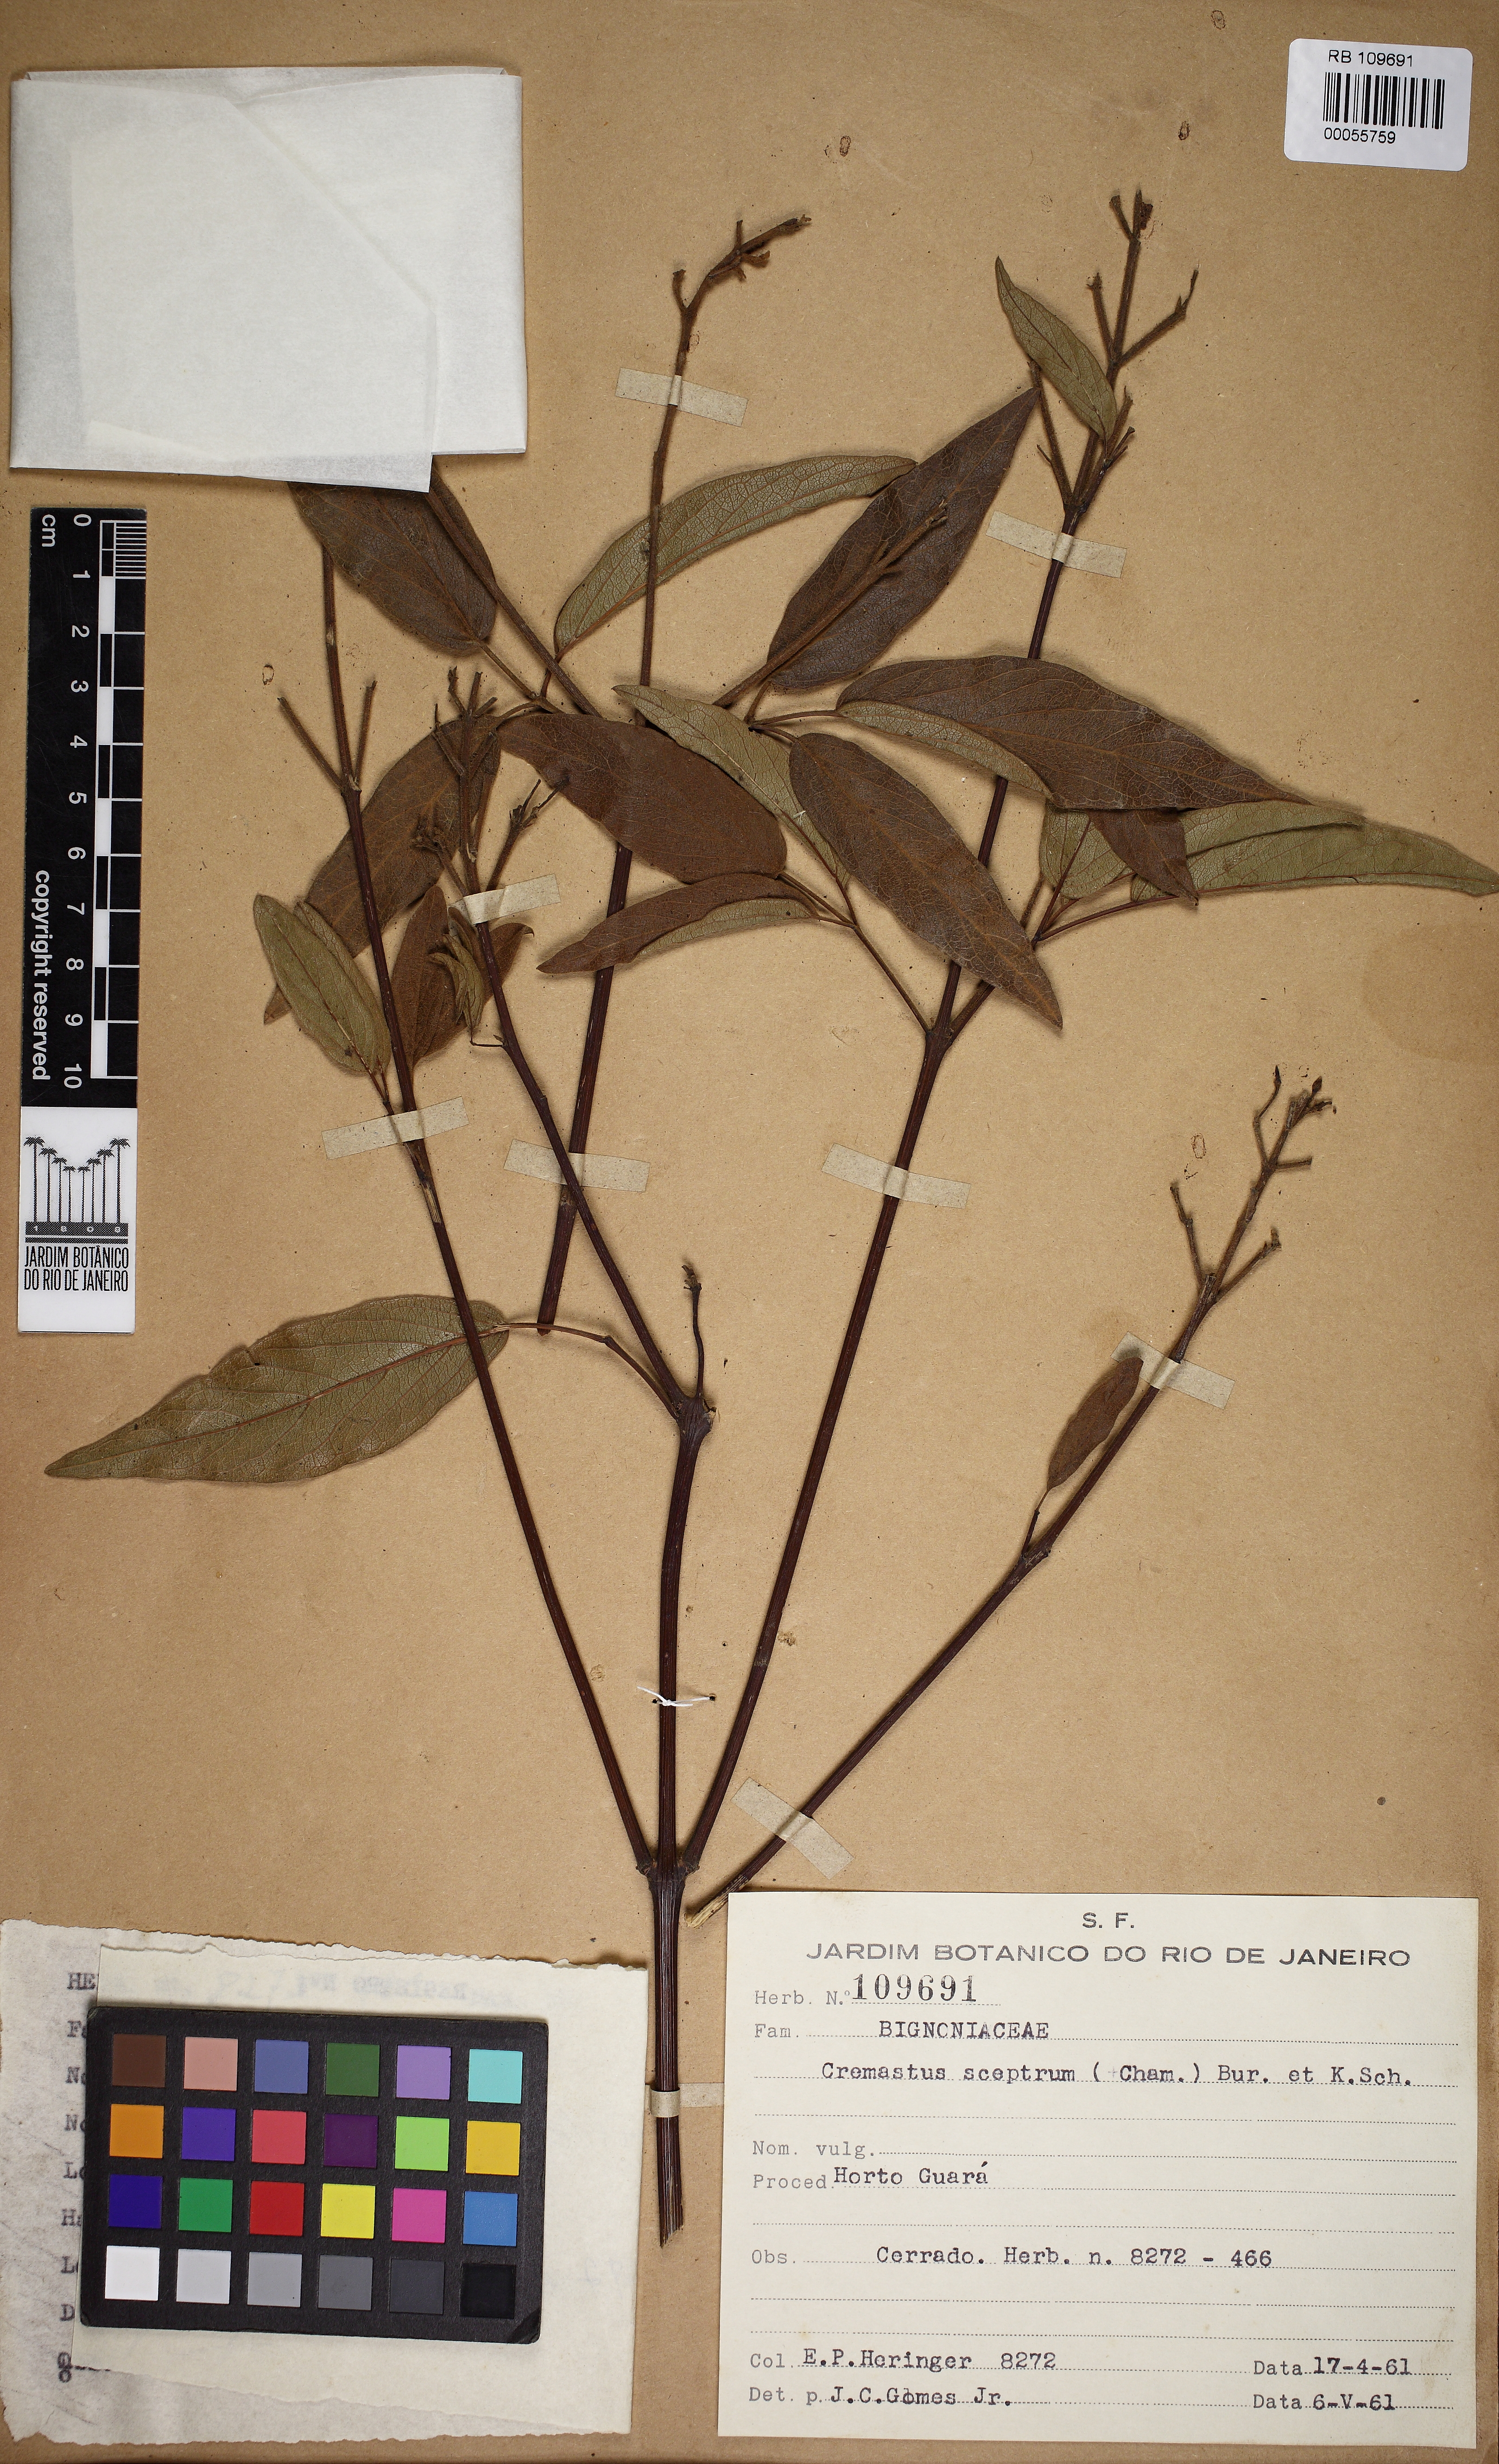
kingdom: Plantae
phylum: Tracheophyta
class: Magnoliopsida
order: Lamiales
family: Bignoniaceae
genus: Cuspidaria
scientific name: Cuspidaria pulchra
